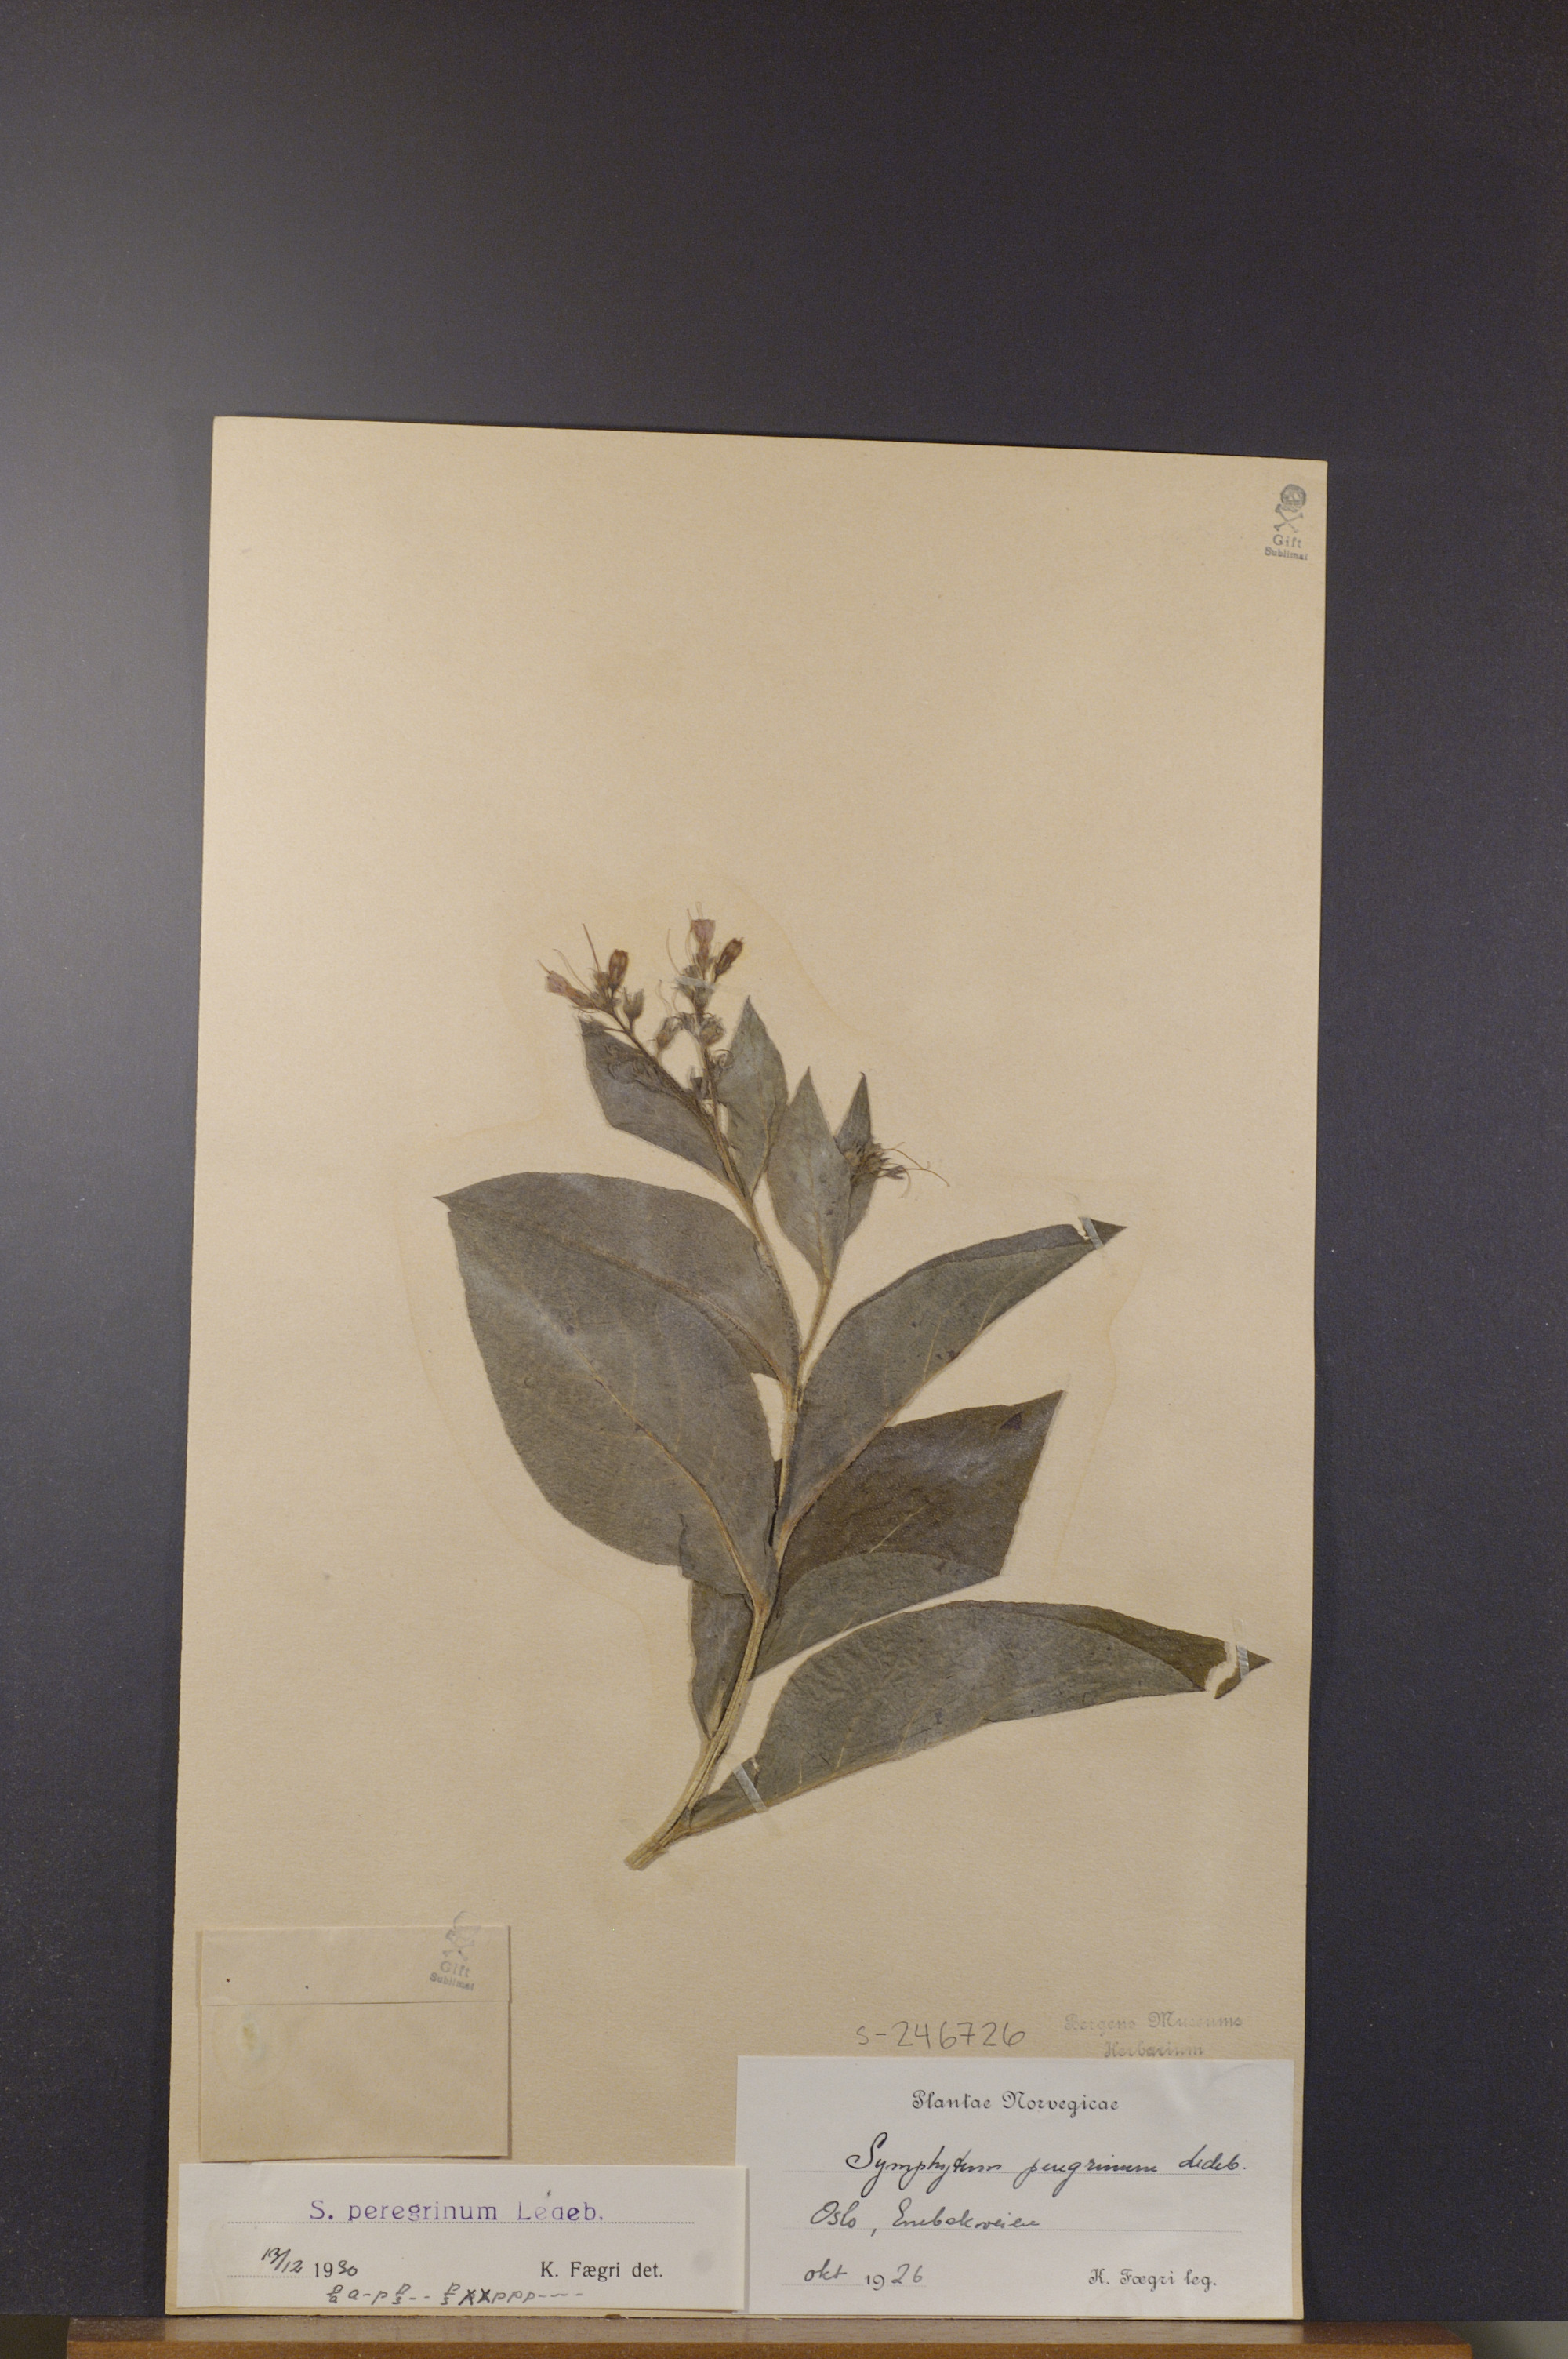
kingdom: Plantae
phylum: Tracheophyta
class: Magnoliopsida
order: Boraginales
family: Boraginaceae
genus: Symphytum
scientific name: Symphytum uplandicum
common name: Russian comfrey
